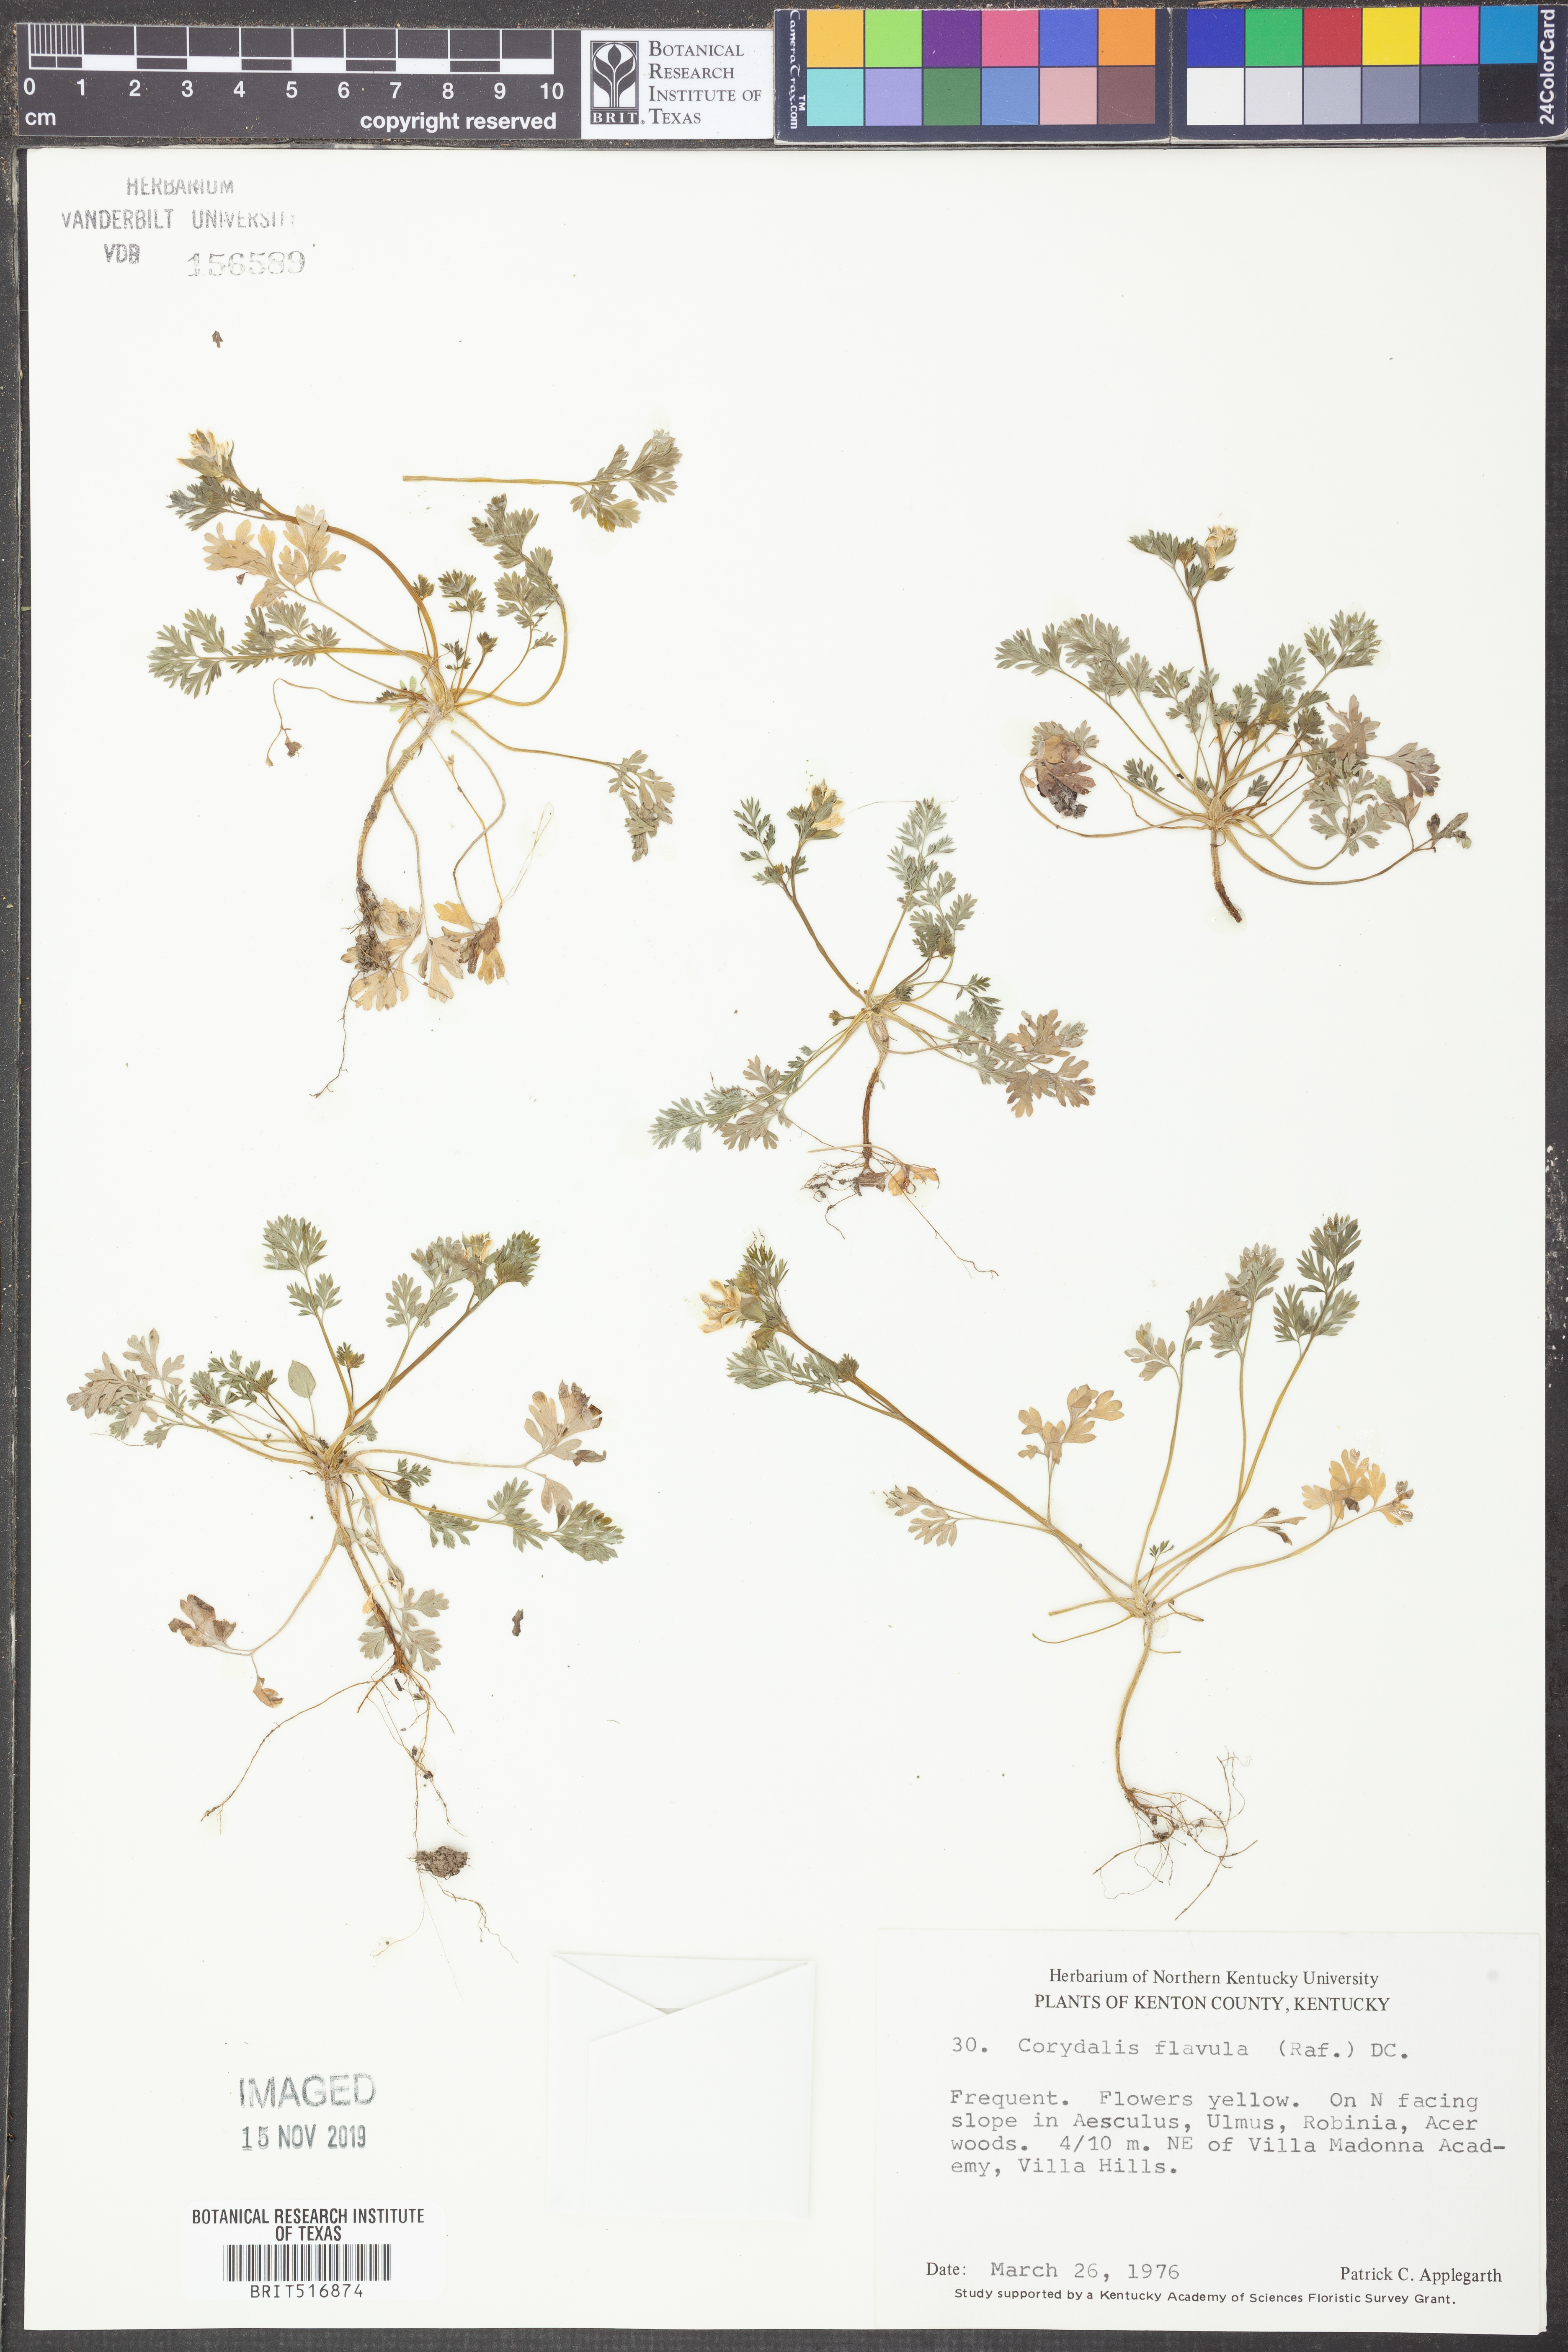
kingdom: Plantae
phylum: Tracheophyta
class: Magnoliopsida
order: Ranunculales
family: Papaveraceae
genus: Corydalis
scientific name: Corydalis flavula
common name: Yellow corydalis
